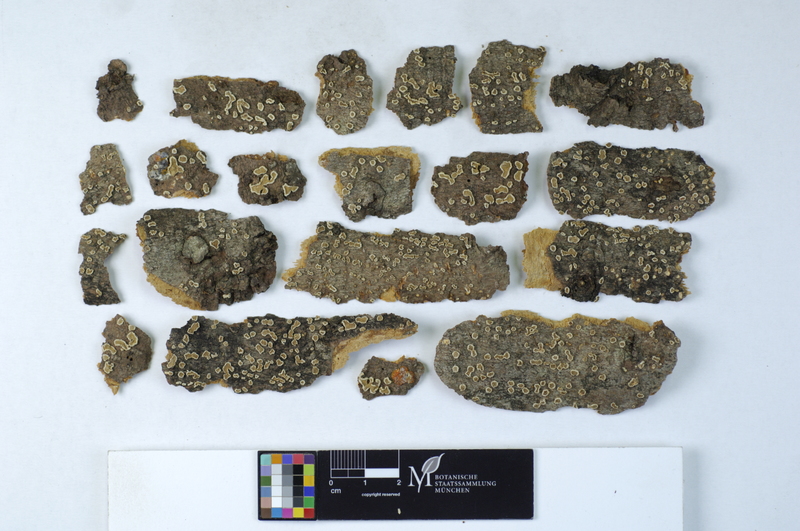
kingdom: Plantae
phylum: Tracheophyta
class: Pinopsida
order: Pinales
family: Pinaceae
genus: Abies
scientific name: Abies
